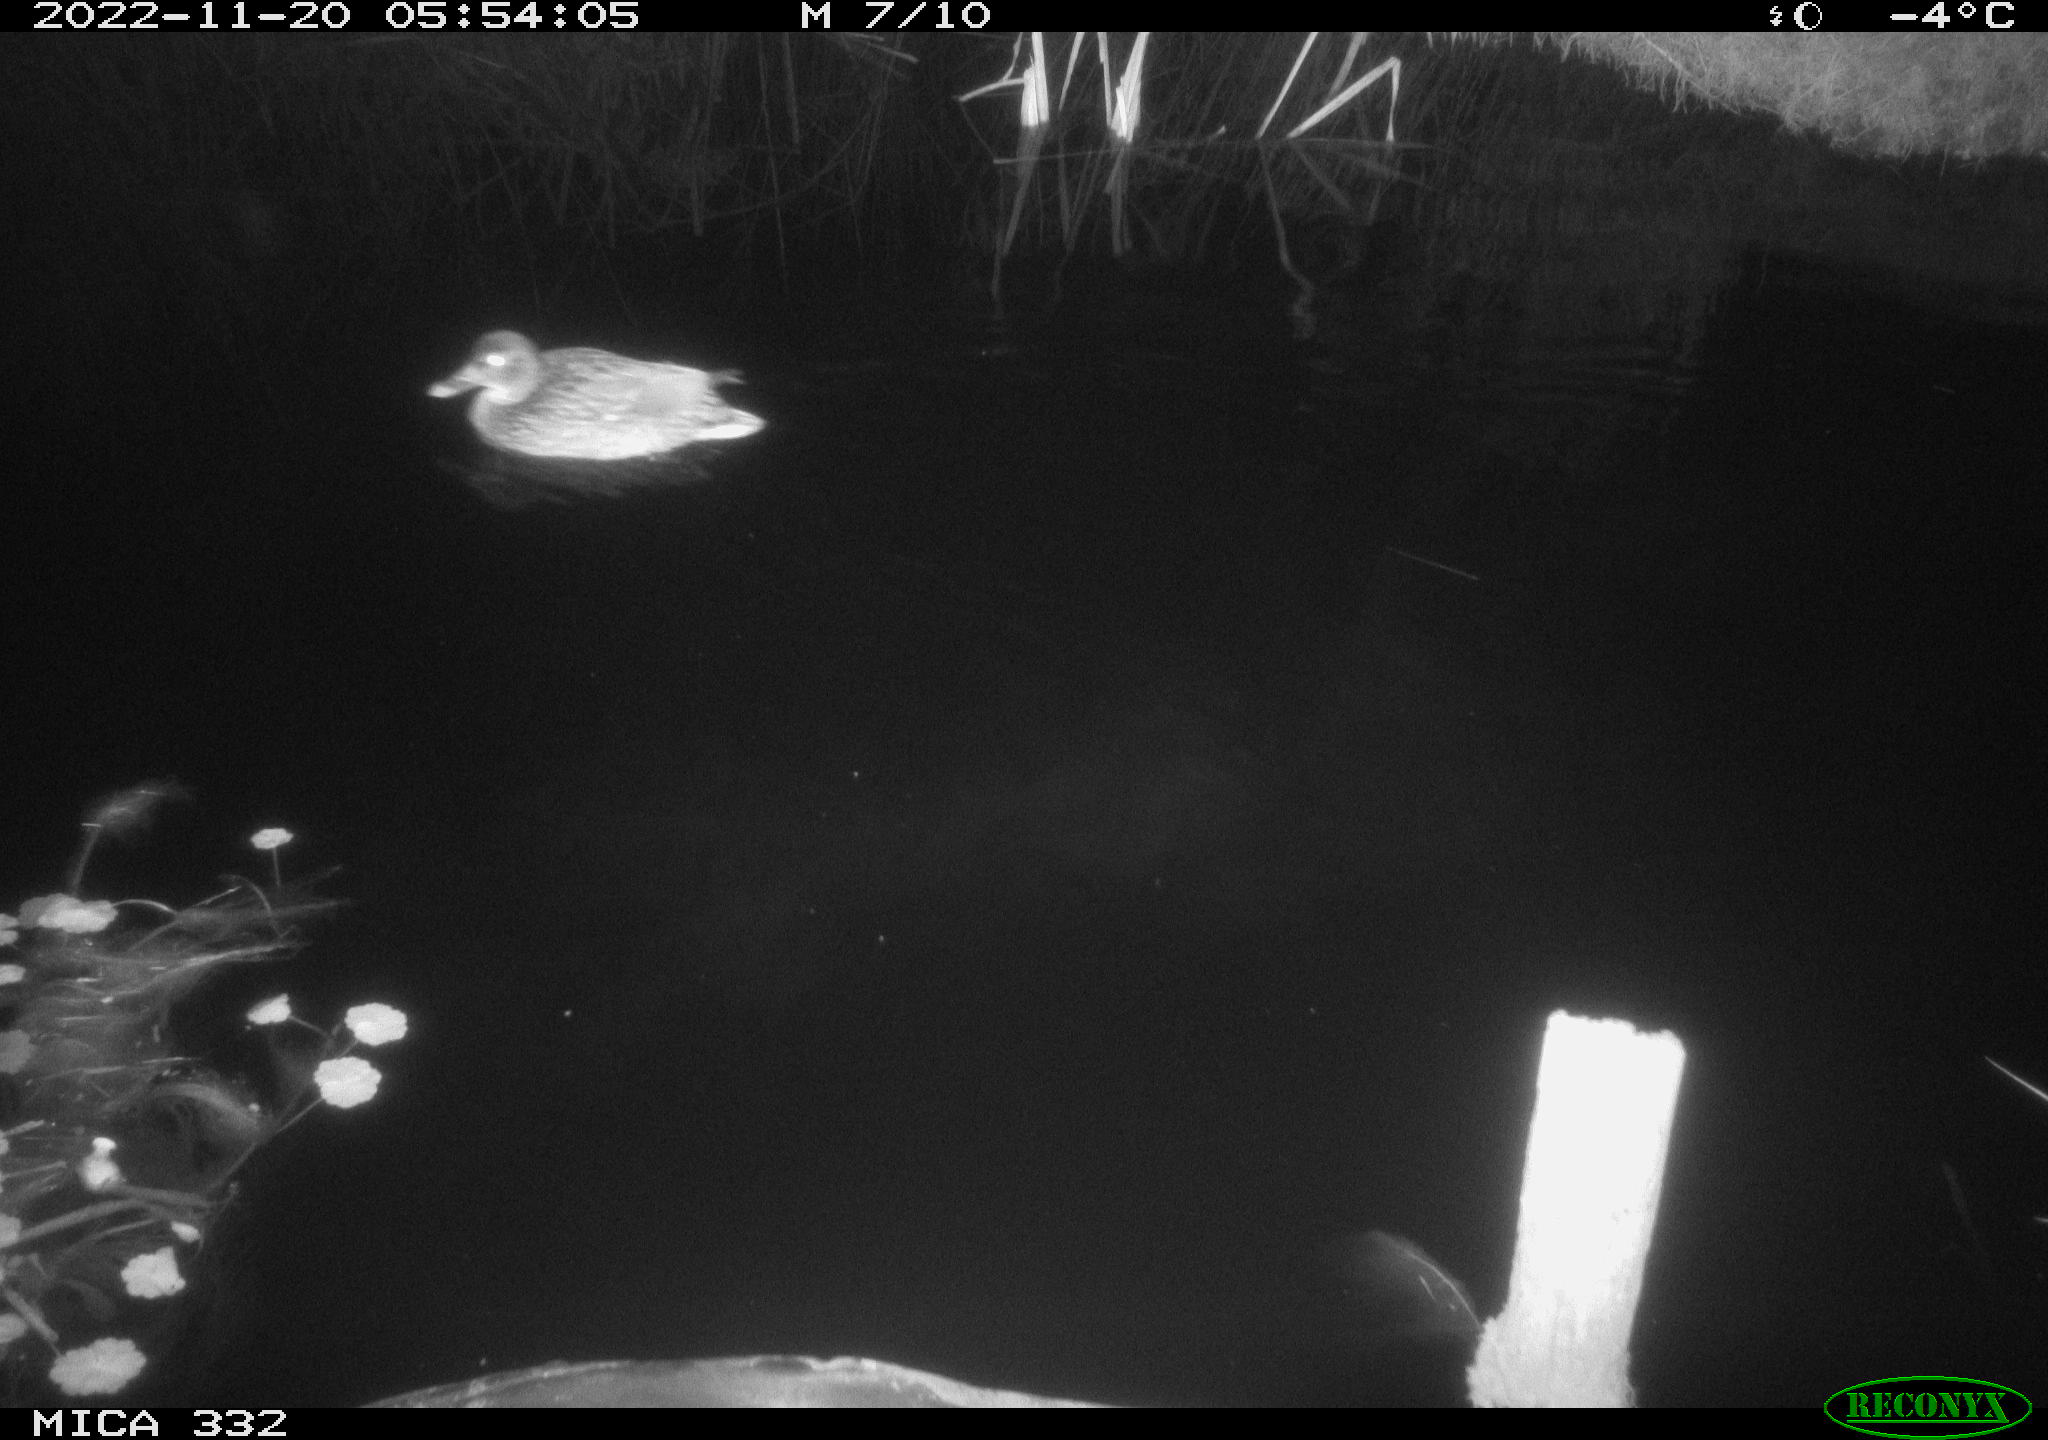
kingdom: Animalia
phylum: Chordata
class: Aves
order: Anseriformes
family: Anatidae
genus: Anas
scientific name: Anas platyrhynchos
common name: Mallard
